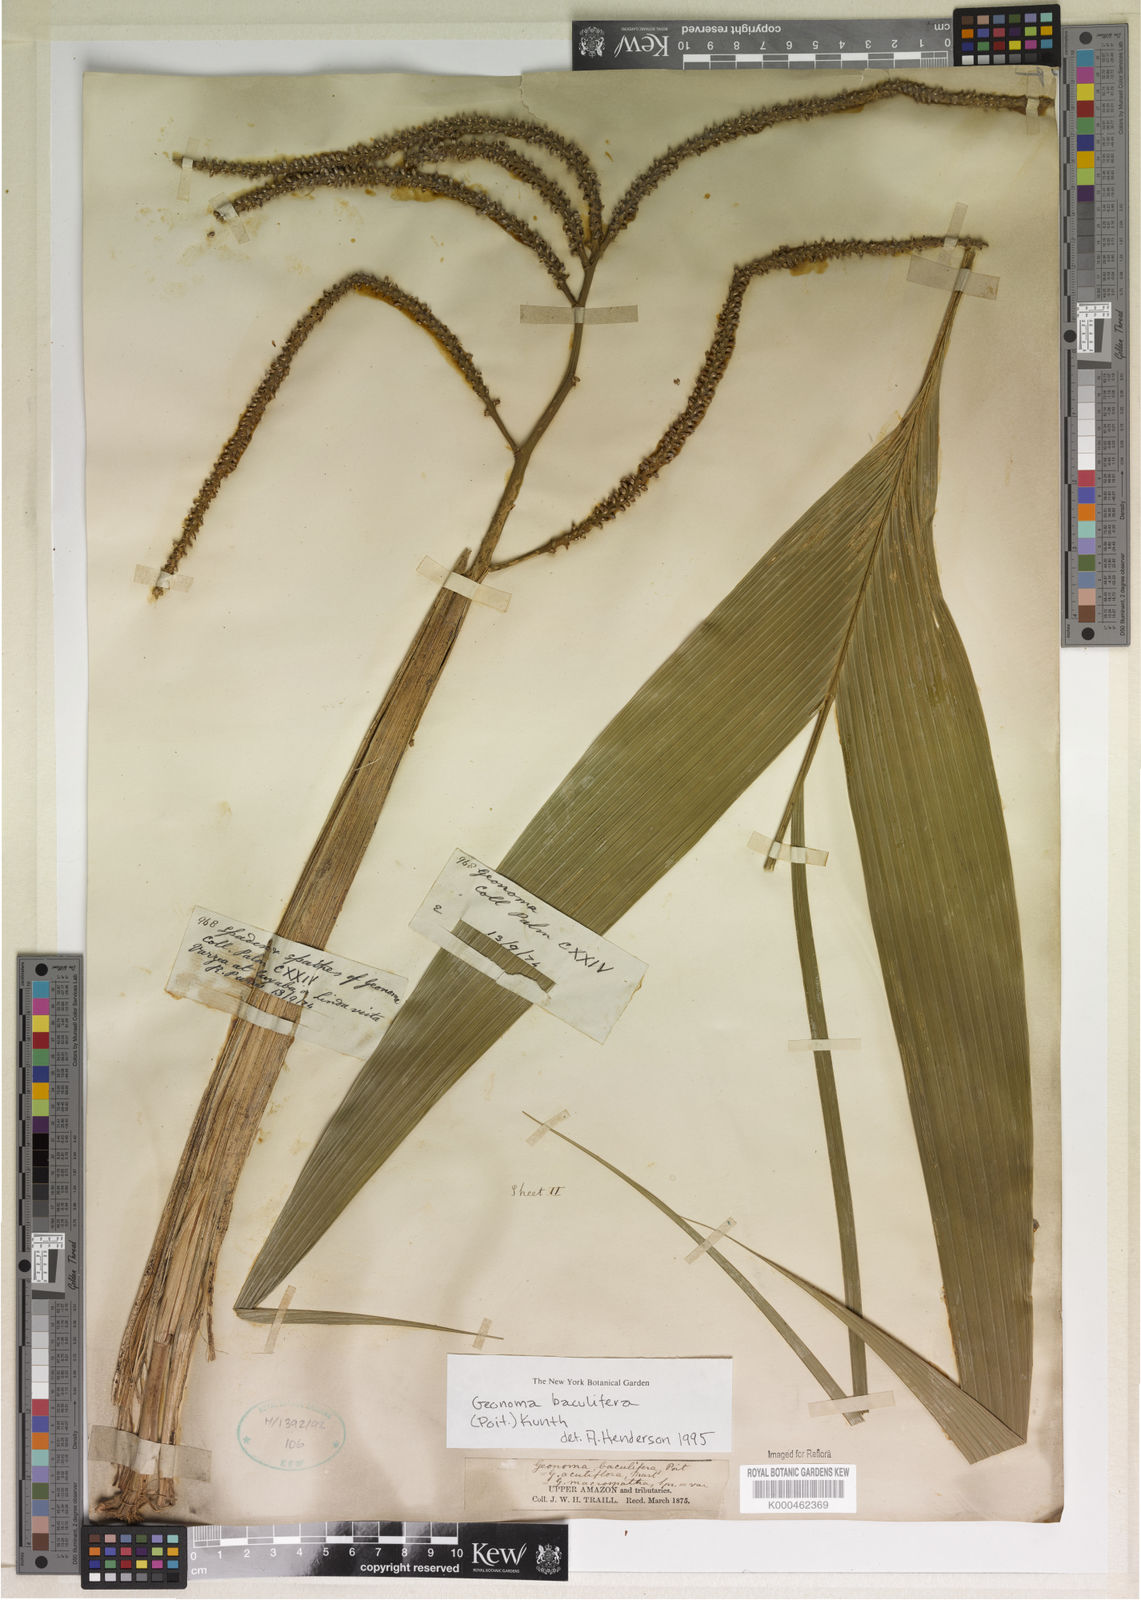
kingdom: Plantae
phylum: Tracheophyta
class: Liliopsida
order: Arecales
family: Arecaceae
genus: Geonoma
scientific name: Geonoma baculifera
